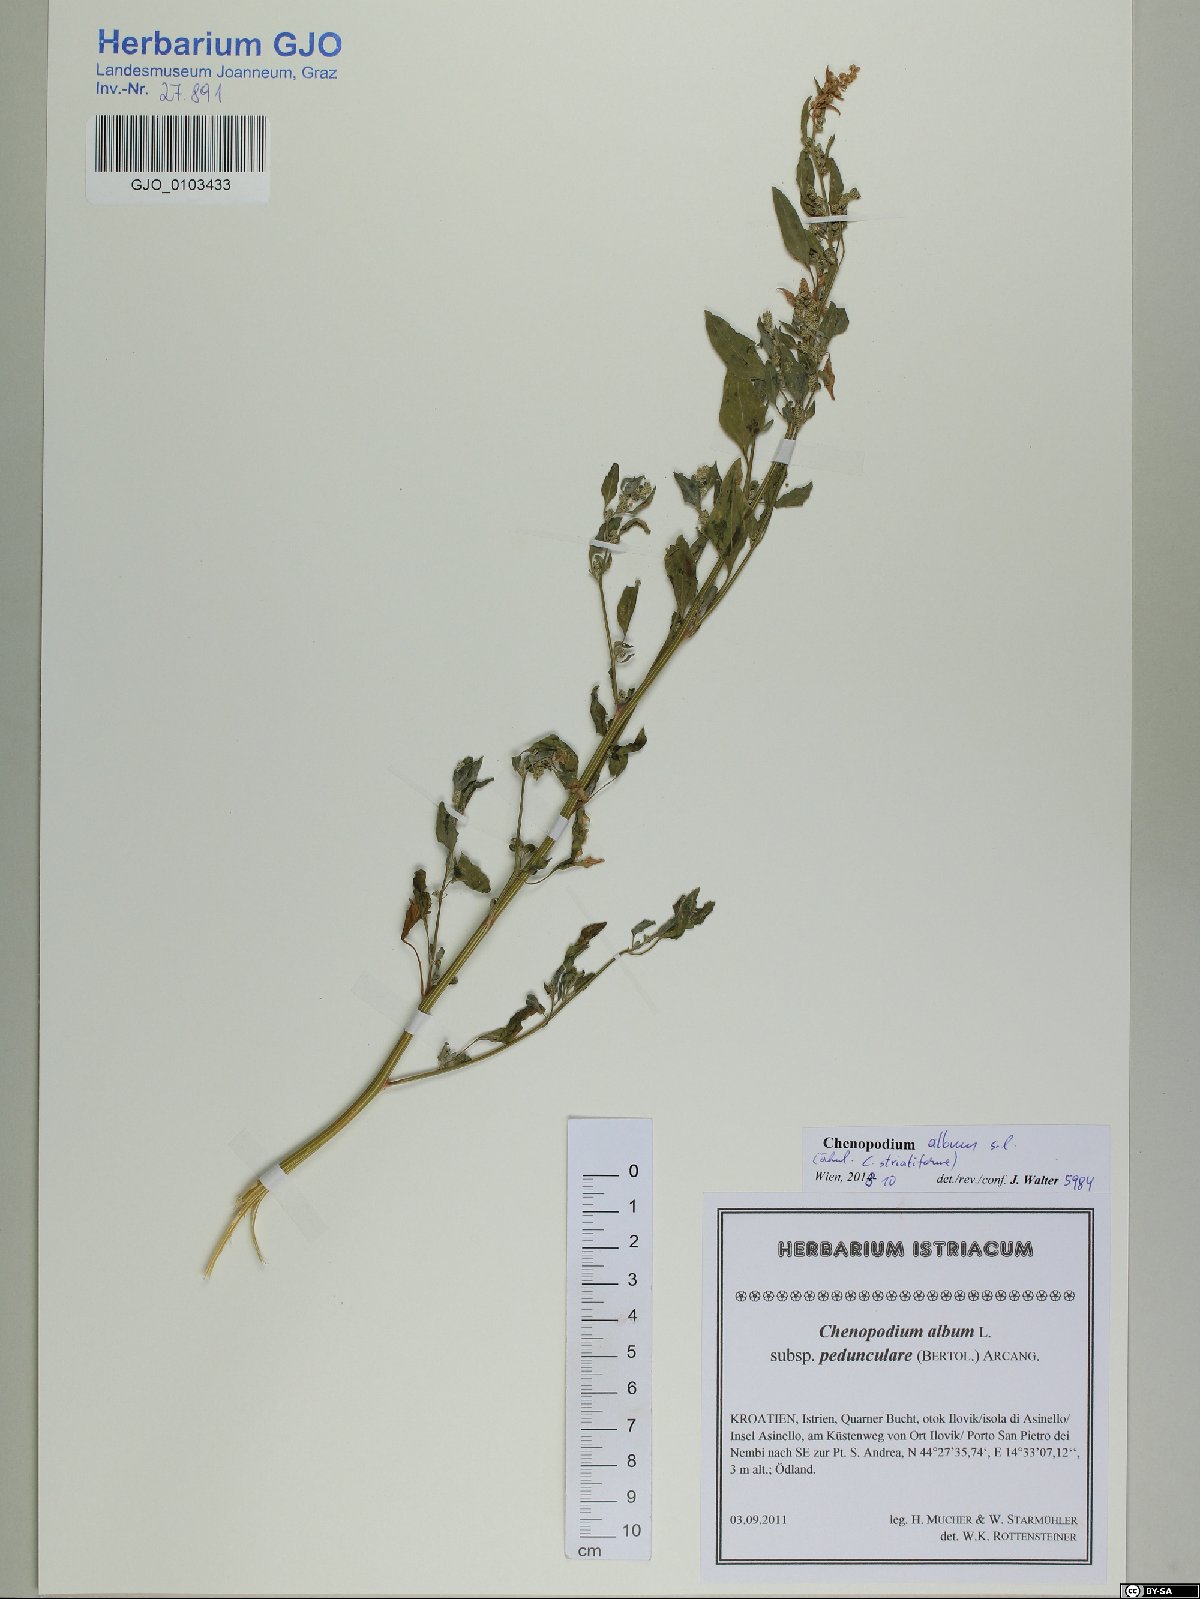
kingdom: Plantae
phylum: Tracheophyta
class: Magnoliopsida
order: Caryophyllales
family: Amaranthaceae
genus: Chenopodium
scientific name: Chenopodium album
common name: Fat-hen
